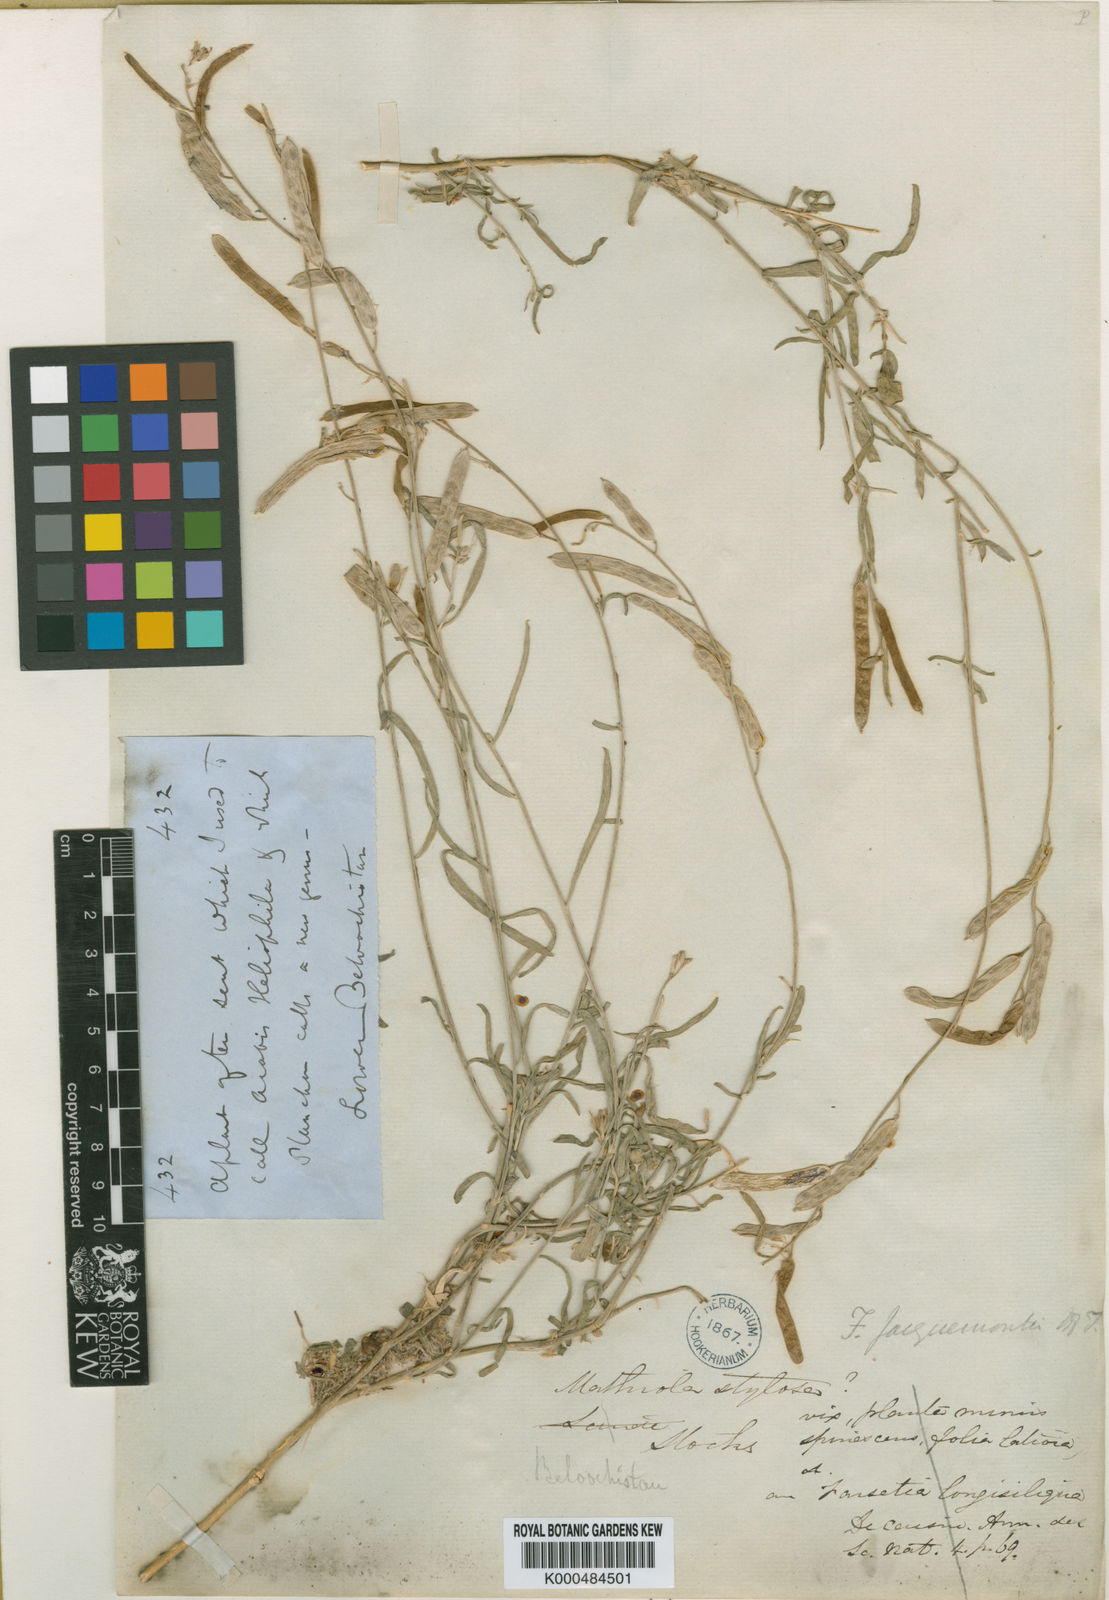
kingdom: Plantae
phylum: Tracheophyta
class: Magnoliopsida
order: Brassicales
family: Brassicaceae
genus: Farsetia
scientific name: Farsetia jacquemontii
